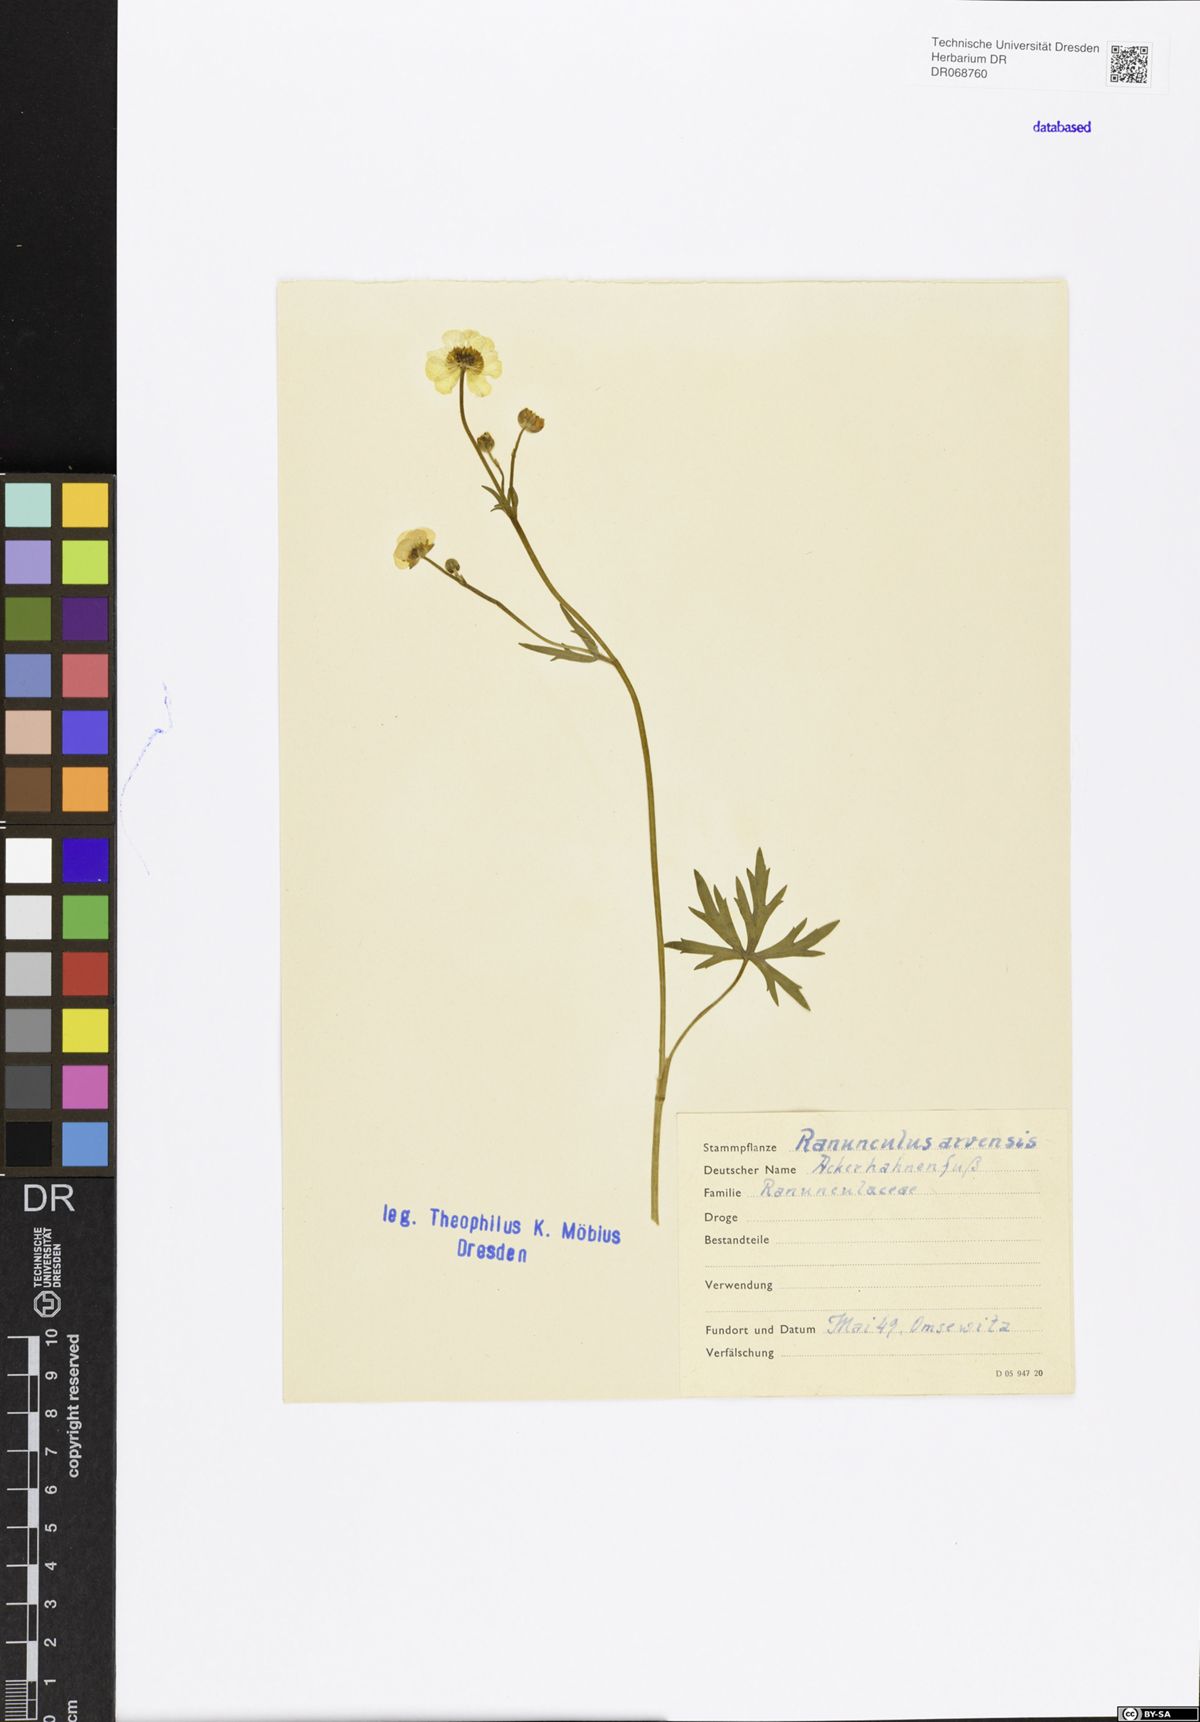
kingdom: Plantae
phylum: Tracheophyta
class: Magnoliopsida
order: Ranunculales
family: Ranunculaceae
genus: Ranunculus
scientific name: Ranunculus arvensis
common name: Corn buttercup
